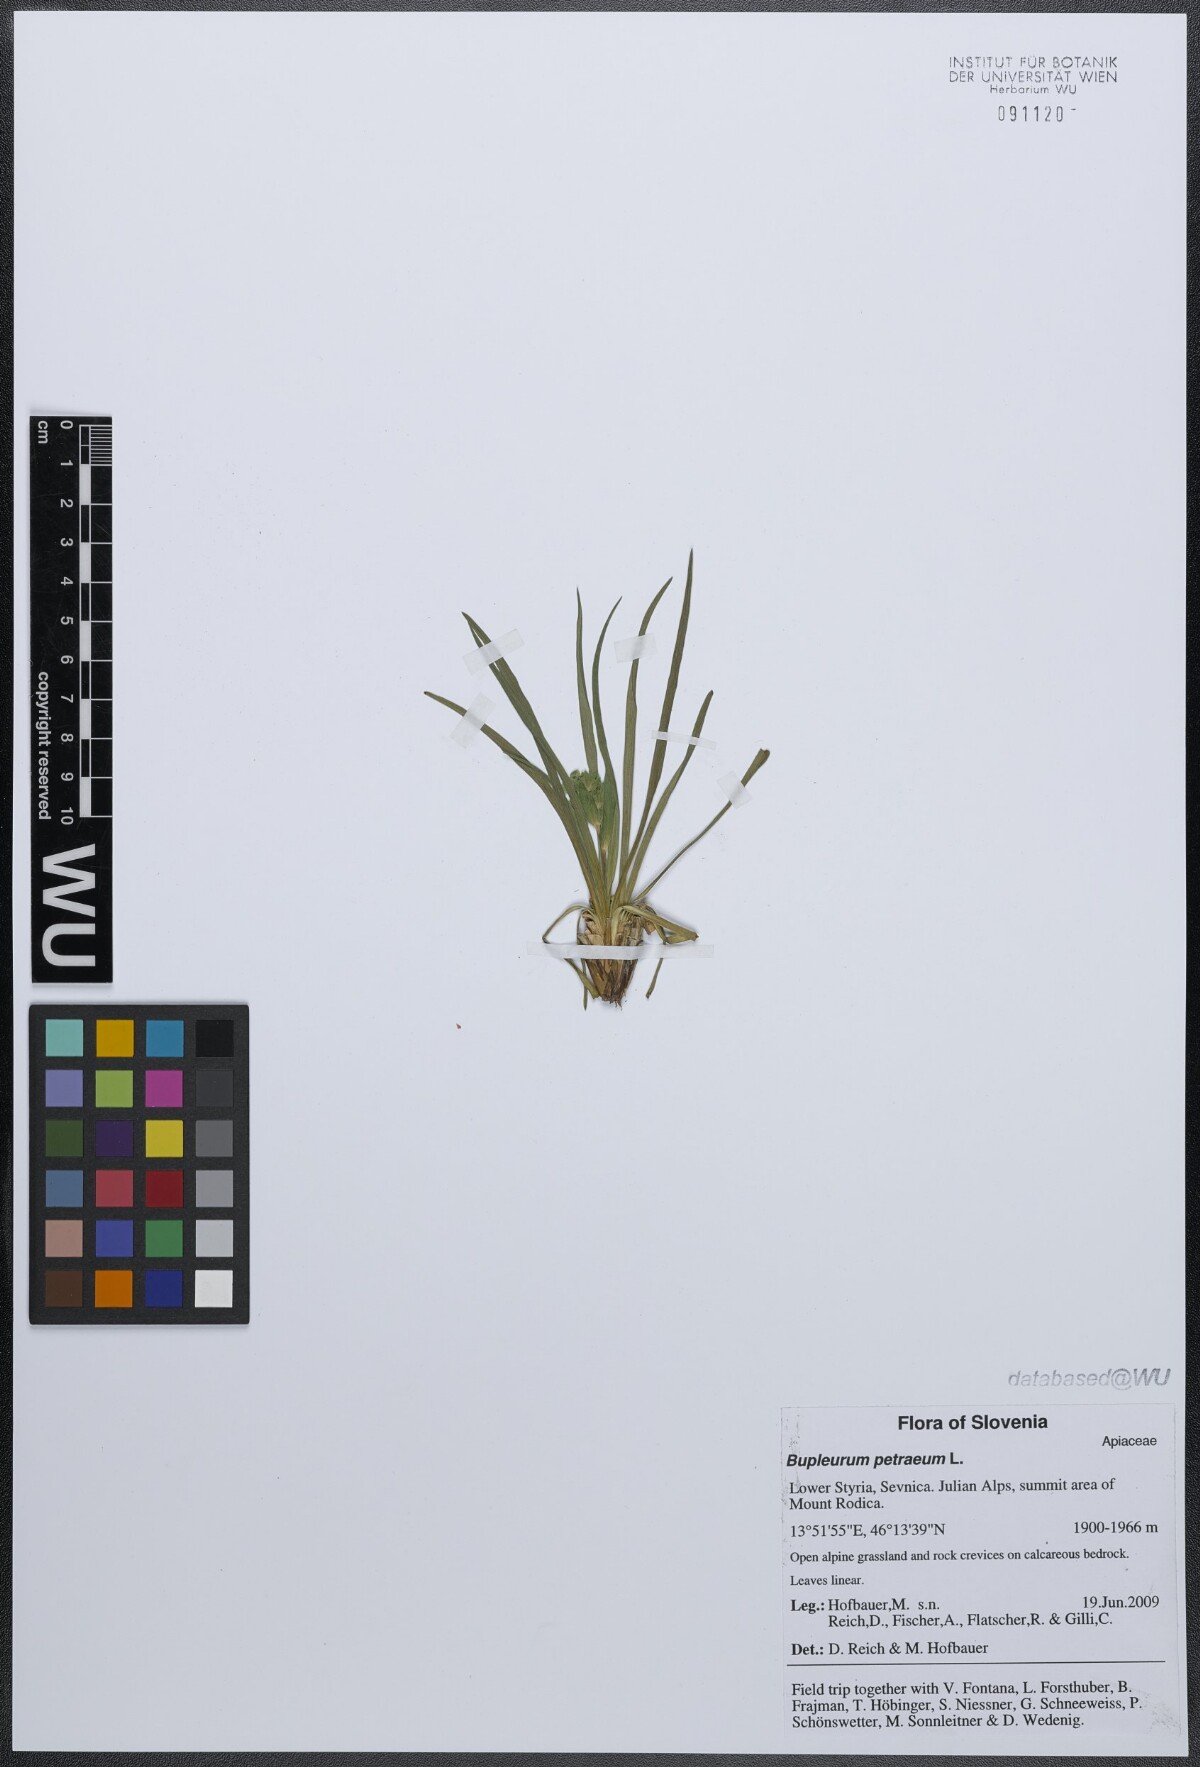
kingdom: Plantae
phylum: Tracheophyta
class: Magnoliopsida
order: Apiales
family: Apiaceae
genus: Bupleurum
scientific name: Bupleurum petraeum
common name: Rock hare's-ear
